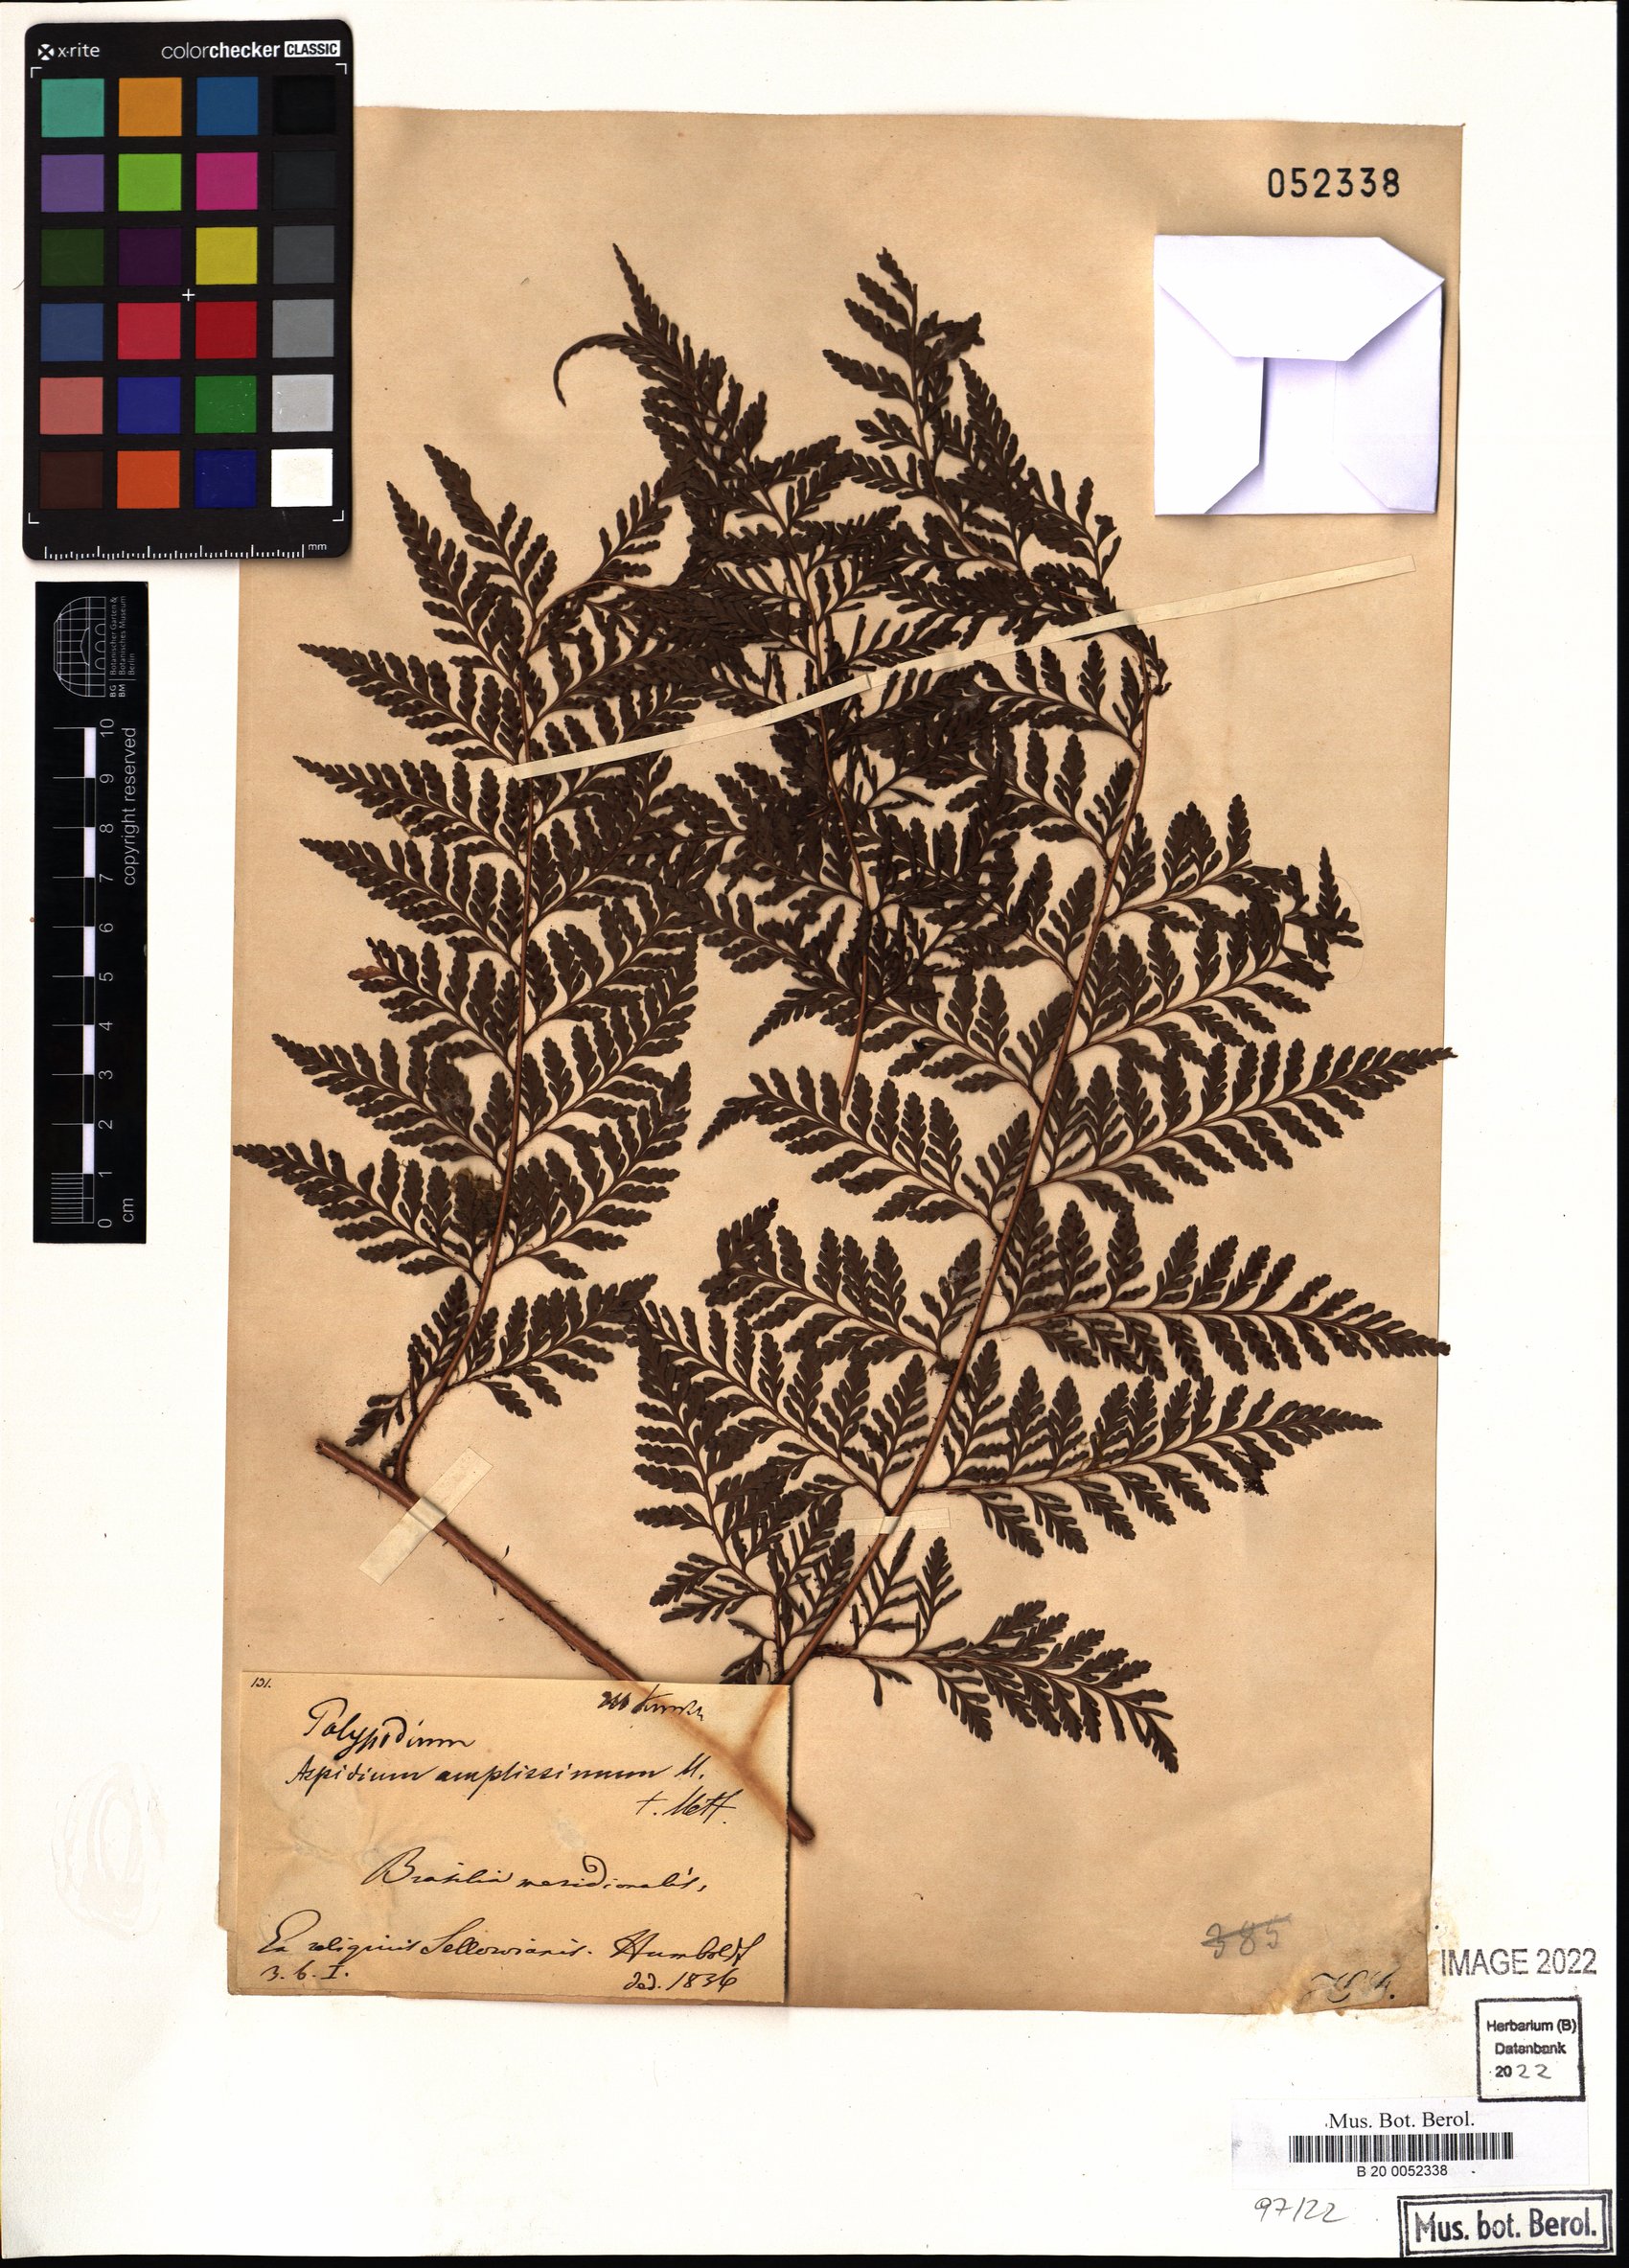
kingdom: Plantae
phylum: Tracheophyta
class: Polypodiopsida
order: Polypodiales
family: Dryopteridaceae
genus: Lastreopsis
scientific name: Lastreopsis amplissima
